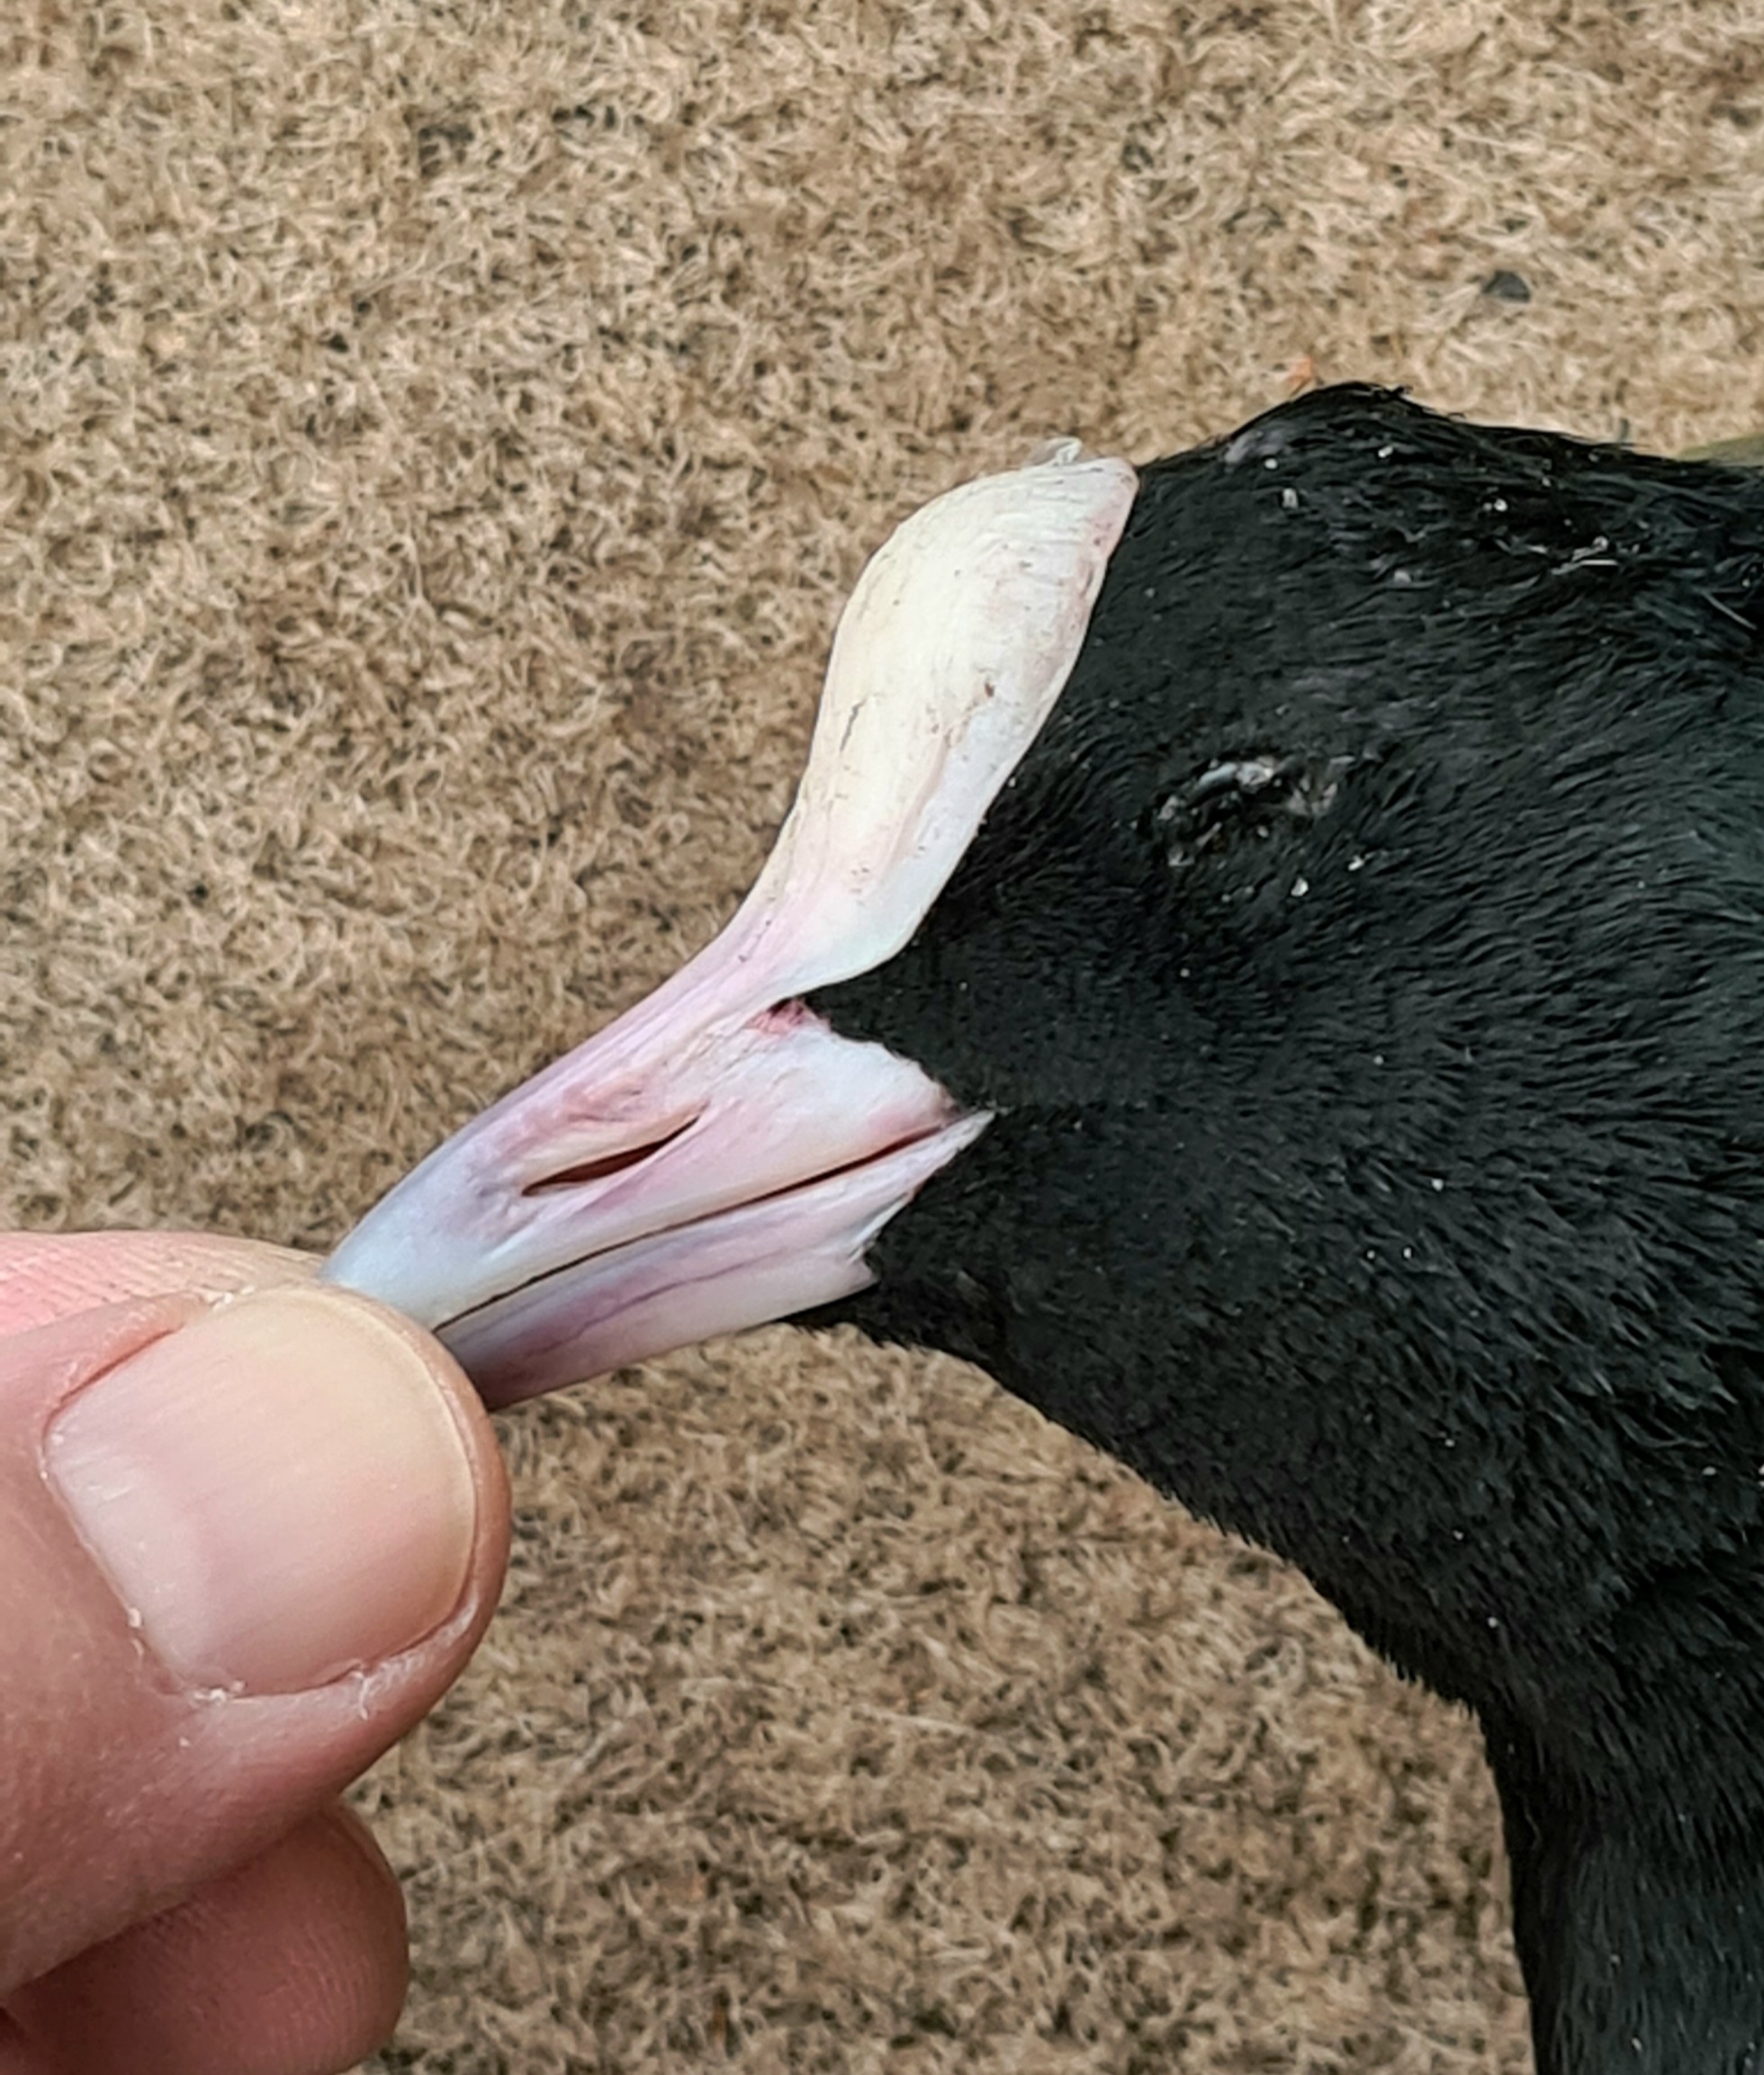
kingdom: Animalia
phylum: Chordata
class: Aves
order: Gruiformes
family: Rallidae
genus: Fulica
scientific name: Fulica atra
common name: Blishøne
